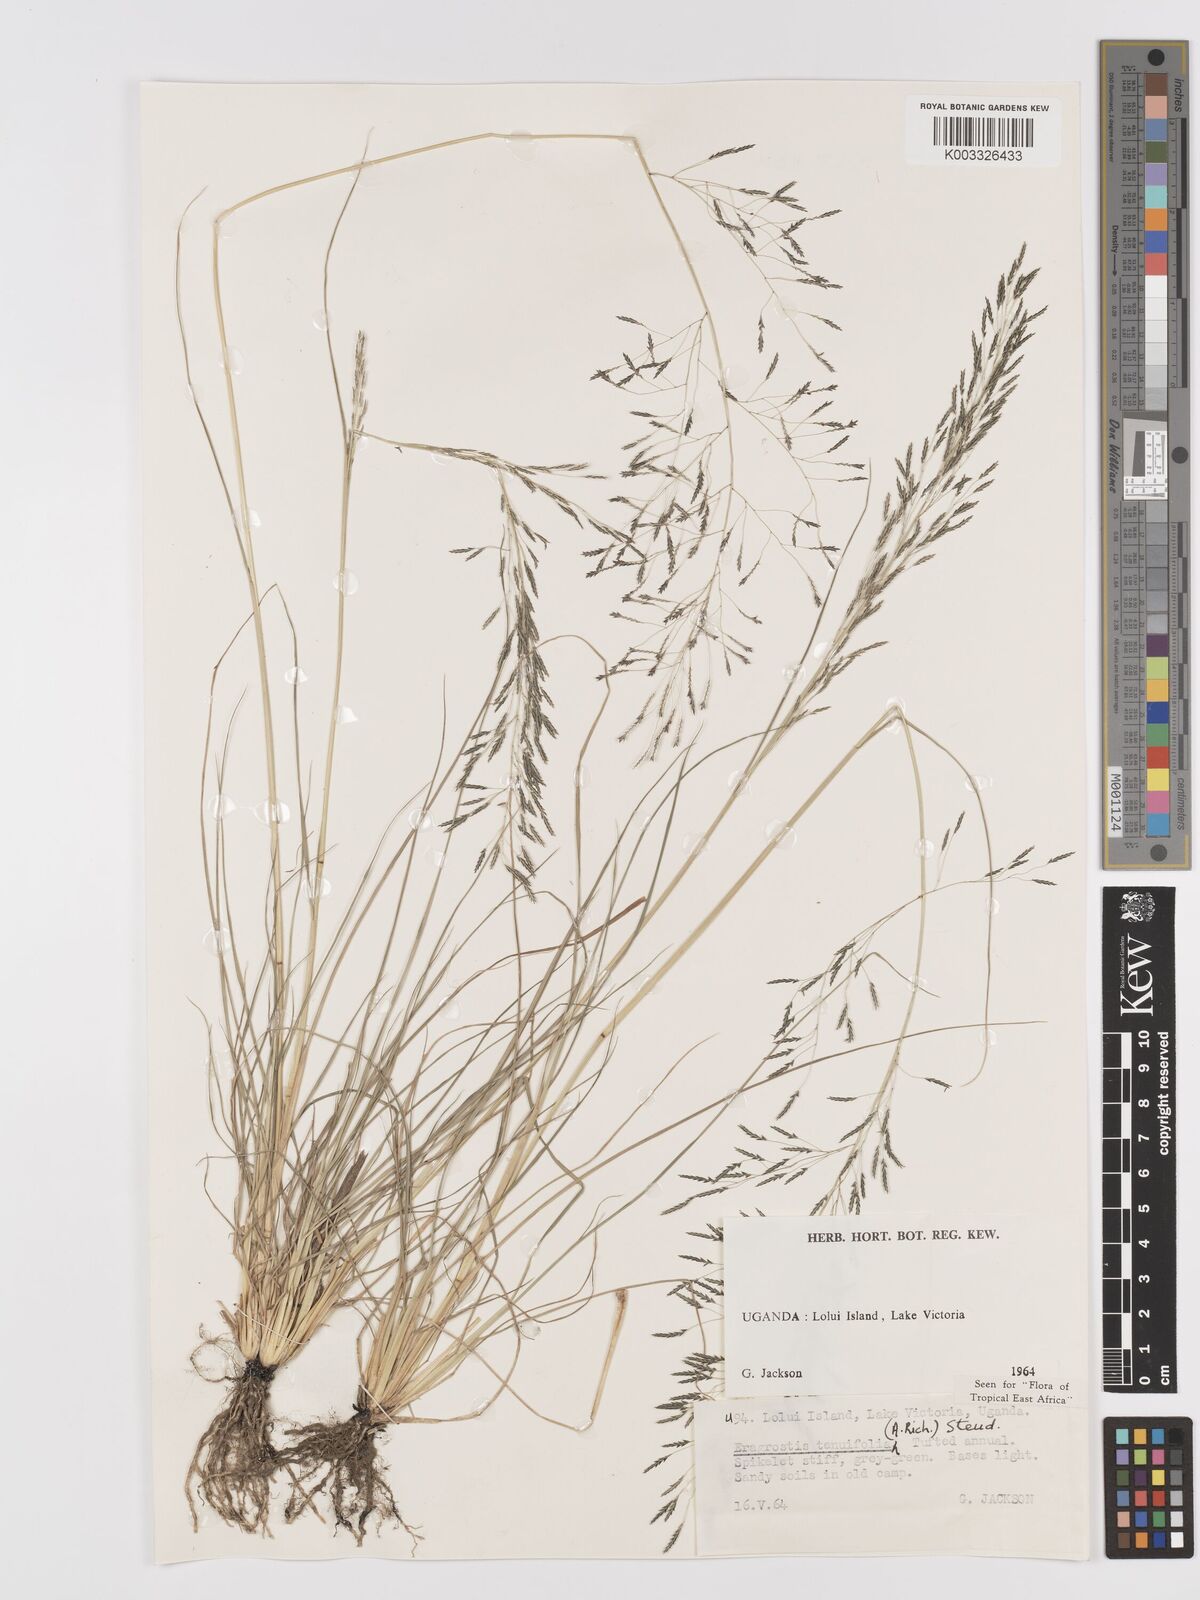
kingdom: Plantae
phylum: Tracheophyta
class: Liliopsida
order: Poales
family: Poaceae
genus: Eragrostis
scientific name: Eragrostis tenuifolia
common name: Elastic grass
